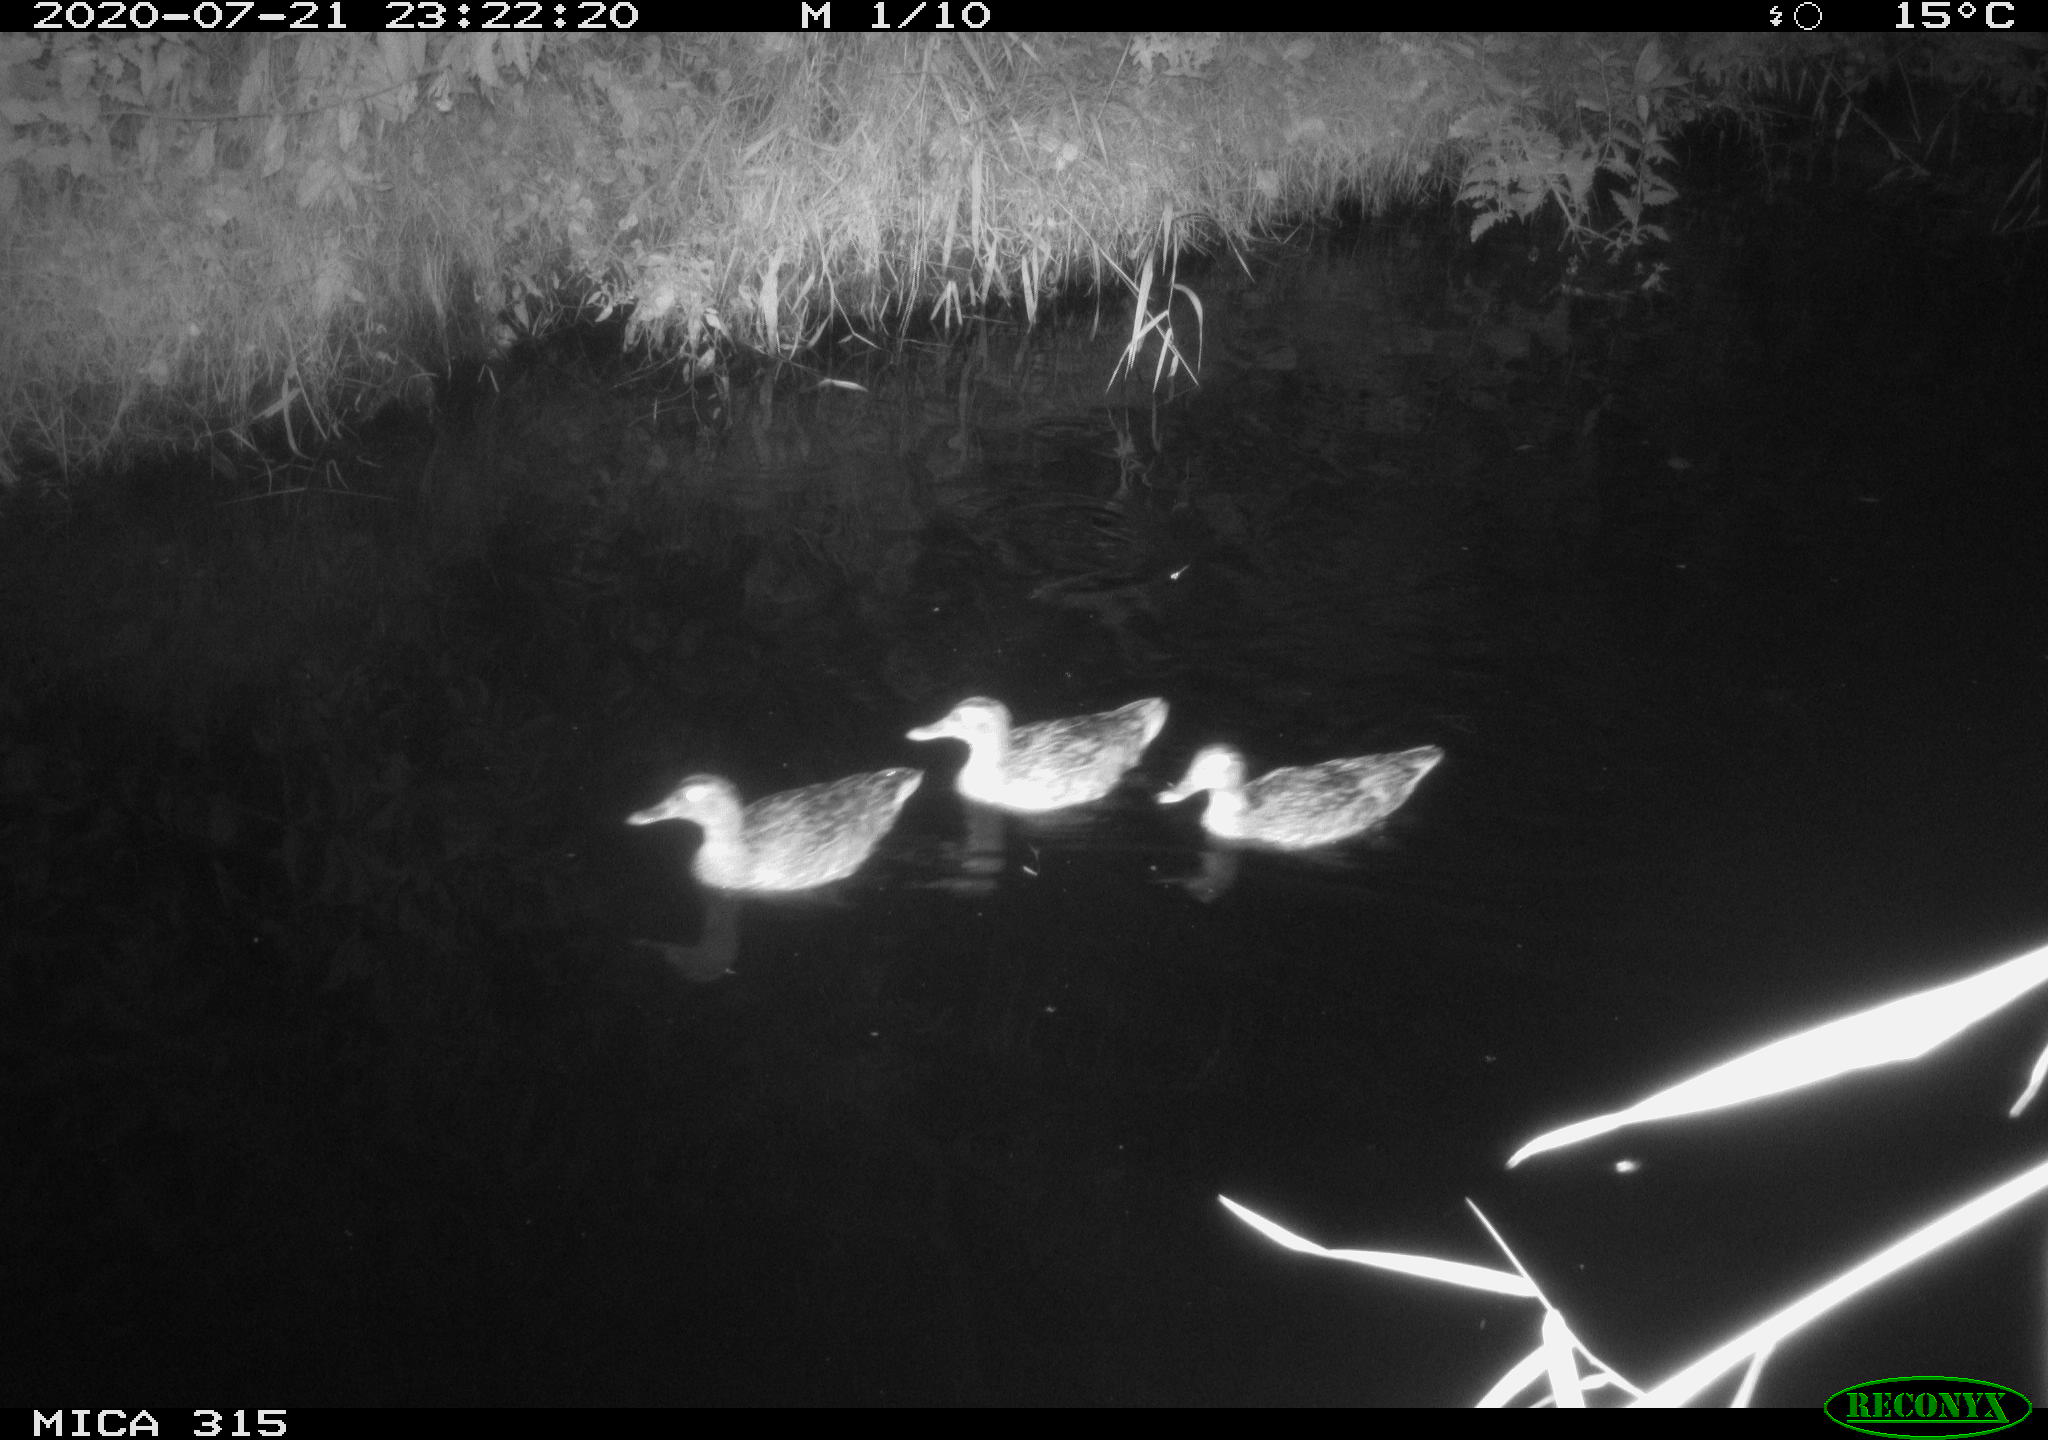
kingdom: Animalia
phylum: Chordata
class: Aves
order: Anseriformes
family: Anatidae
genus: Anas
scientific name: Anas platyrhynchos
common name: Mallard
